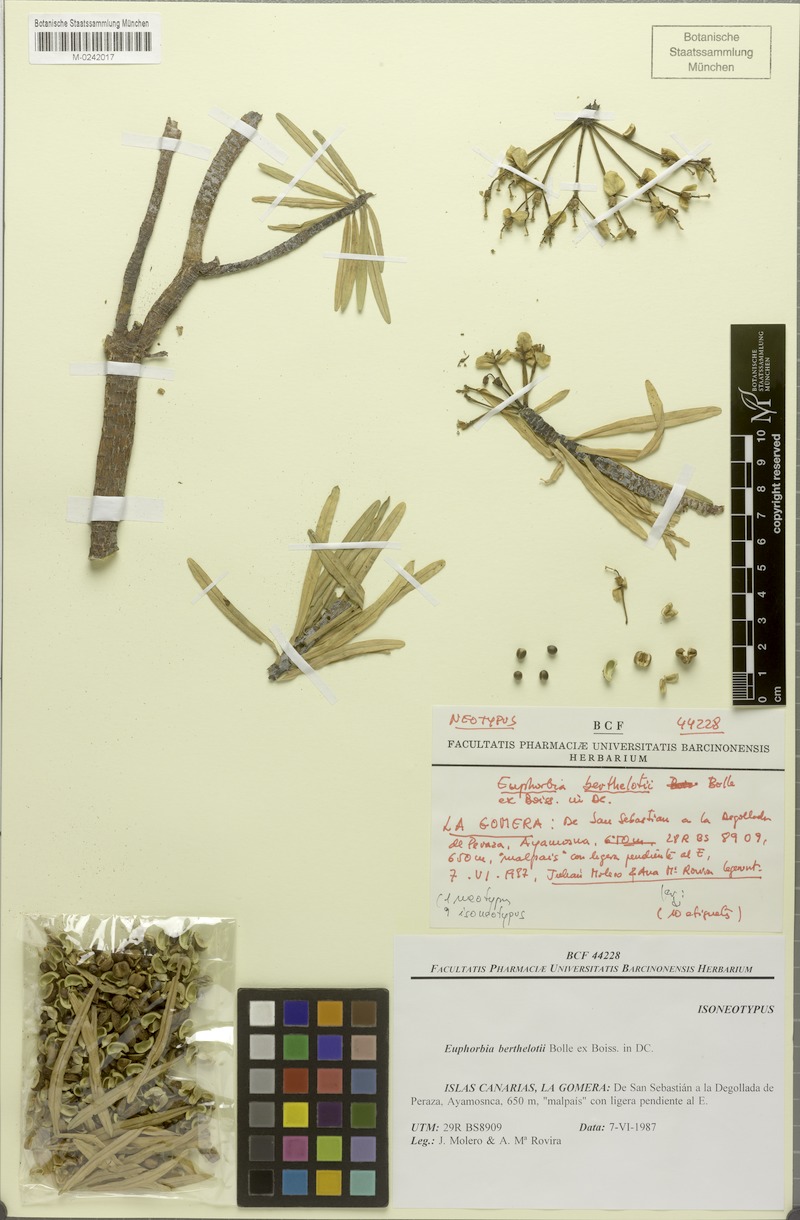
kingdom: Plantae
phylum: Tracheophyta
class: Magnoliopsida
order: Malpighiales
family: Euphorbiaceae
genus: Euphorbia
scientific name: Euphorbia berthelotii
